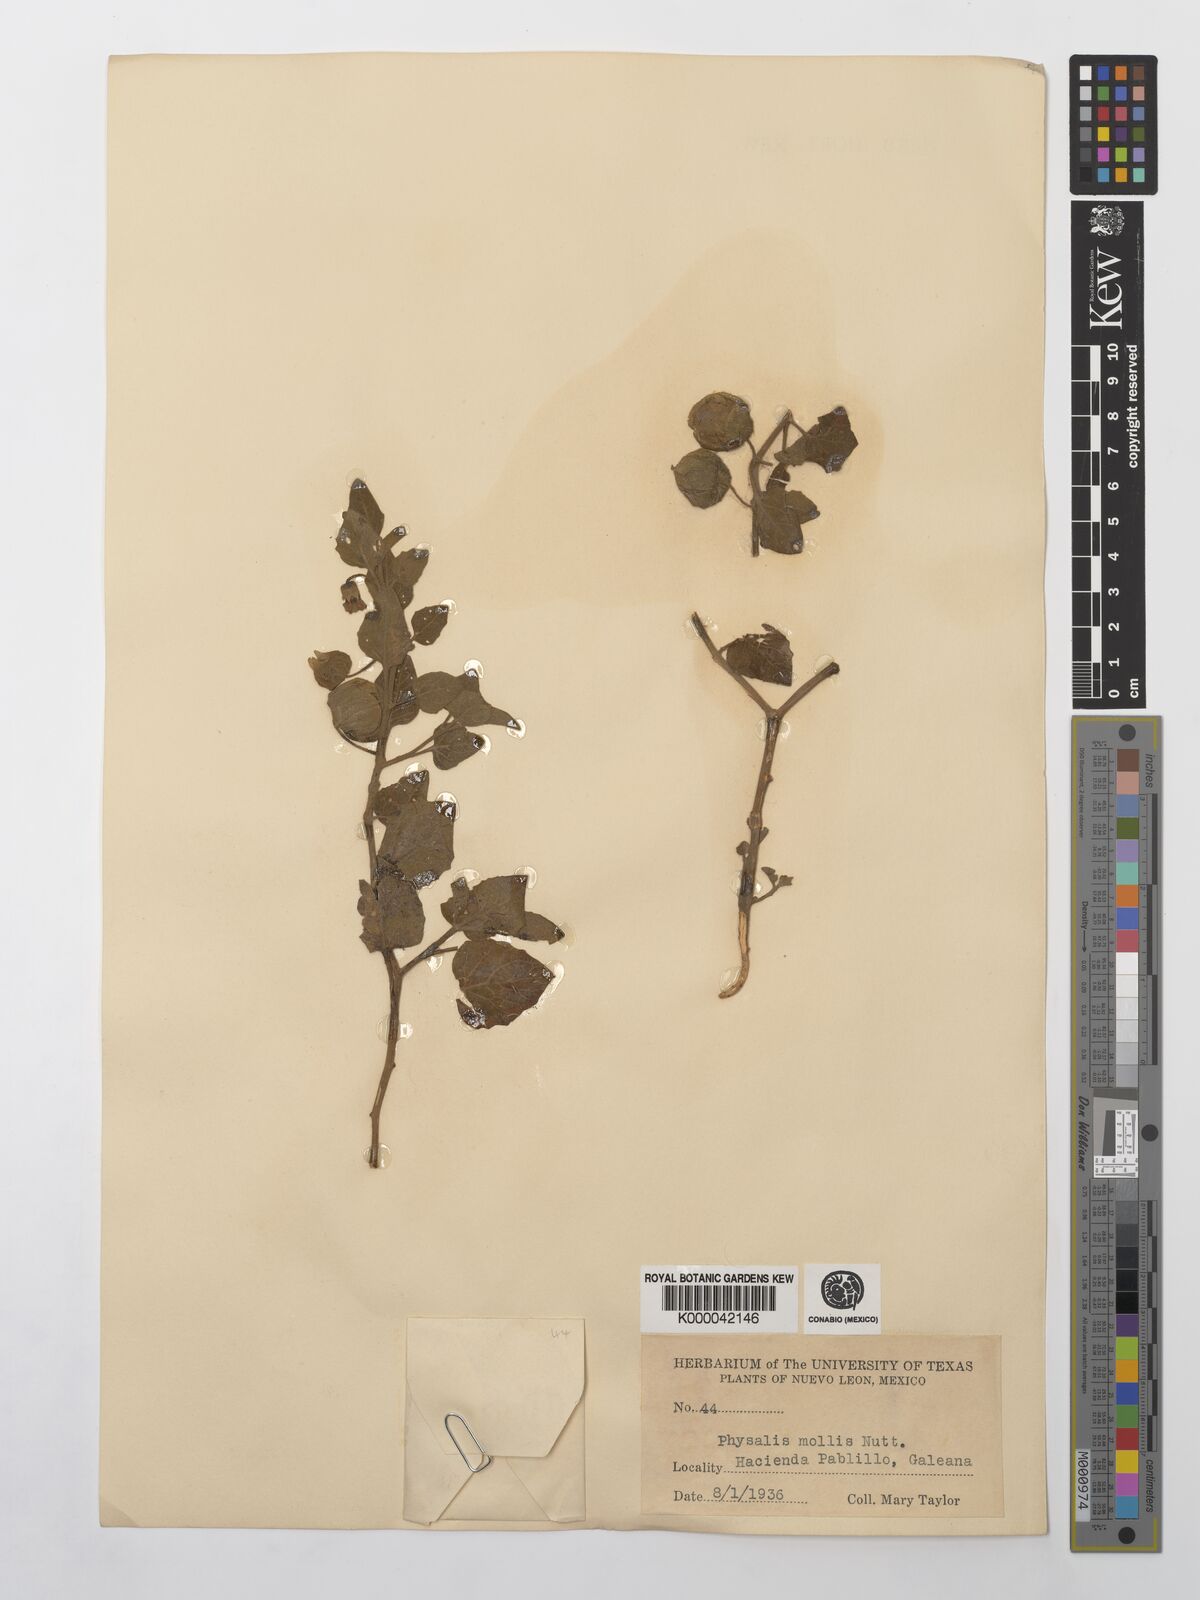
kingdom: Plantae
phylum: Tracheophyta
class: Magnoliopsida
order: Solanales
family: Solanaceae
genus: Physalis
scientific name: Physalis cinerascens
